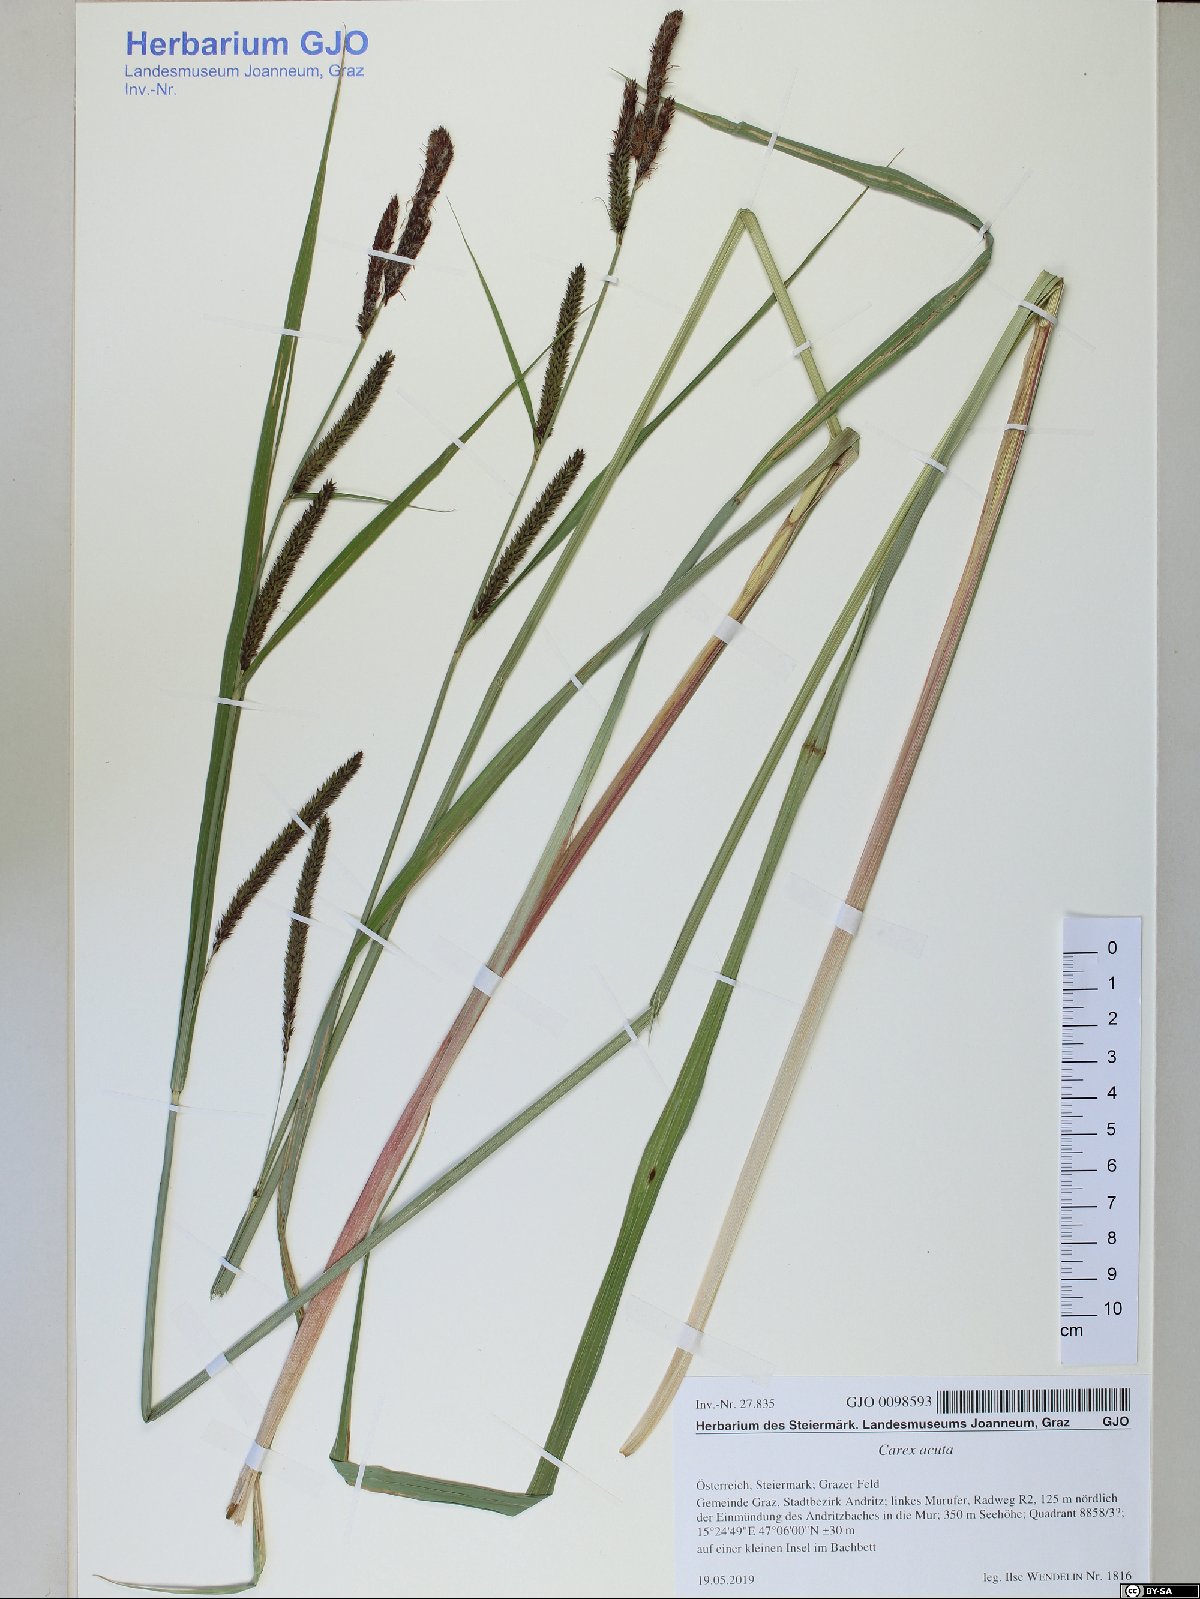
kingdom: Plantae
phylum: Tracheophyta
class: Liliopsida
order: Poales
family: Cyperaceae
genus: Carex
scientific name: Carex acuta
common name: Slender tufted-sedge
